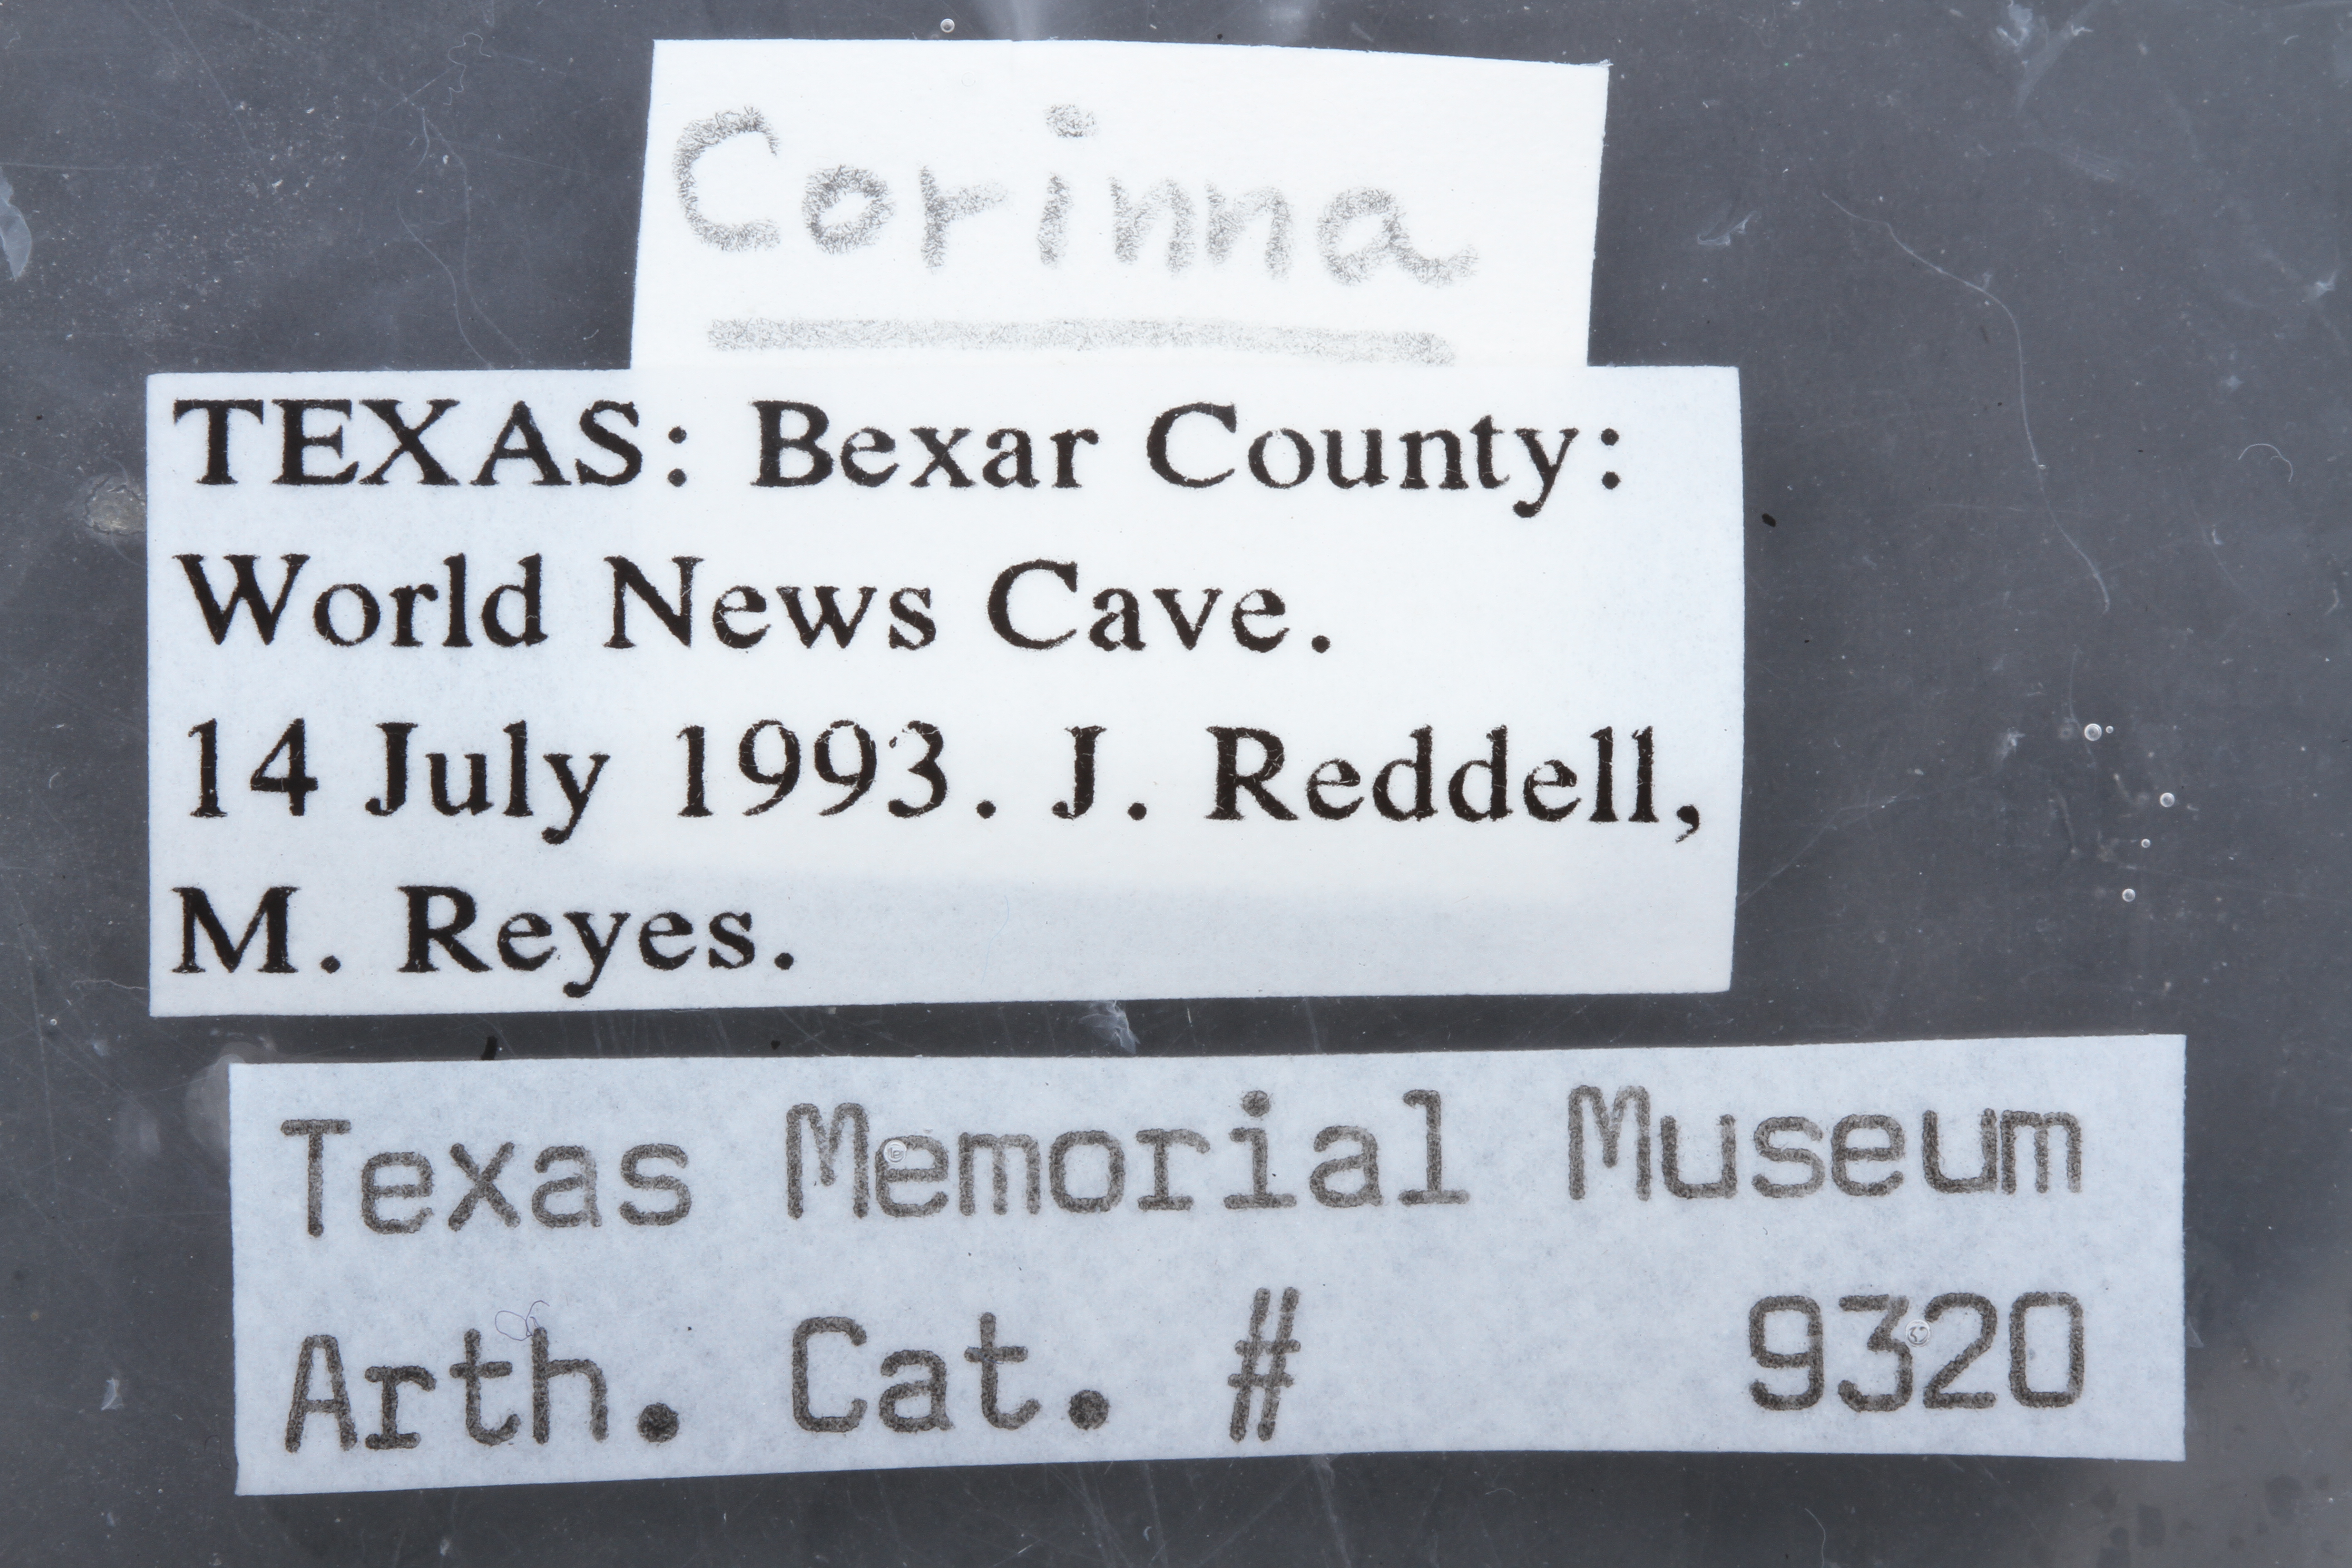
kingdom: Animalia
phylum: Arthropoda
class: Arachnida
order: Araneae
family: Corinnidae
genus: Corinna
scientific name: Corinna
